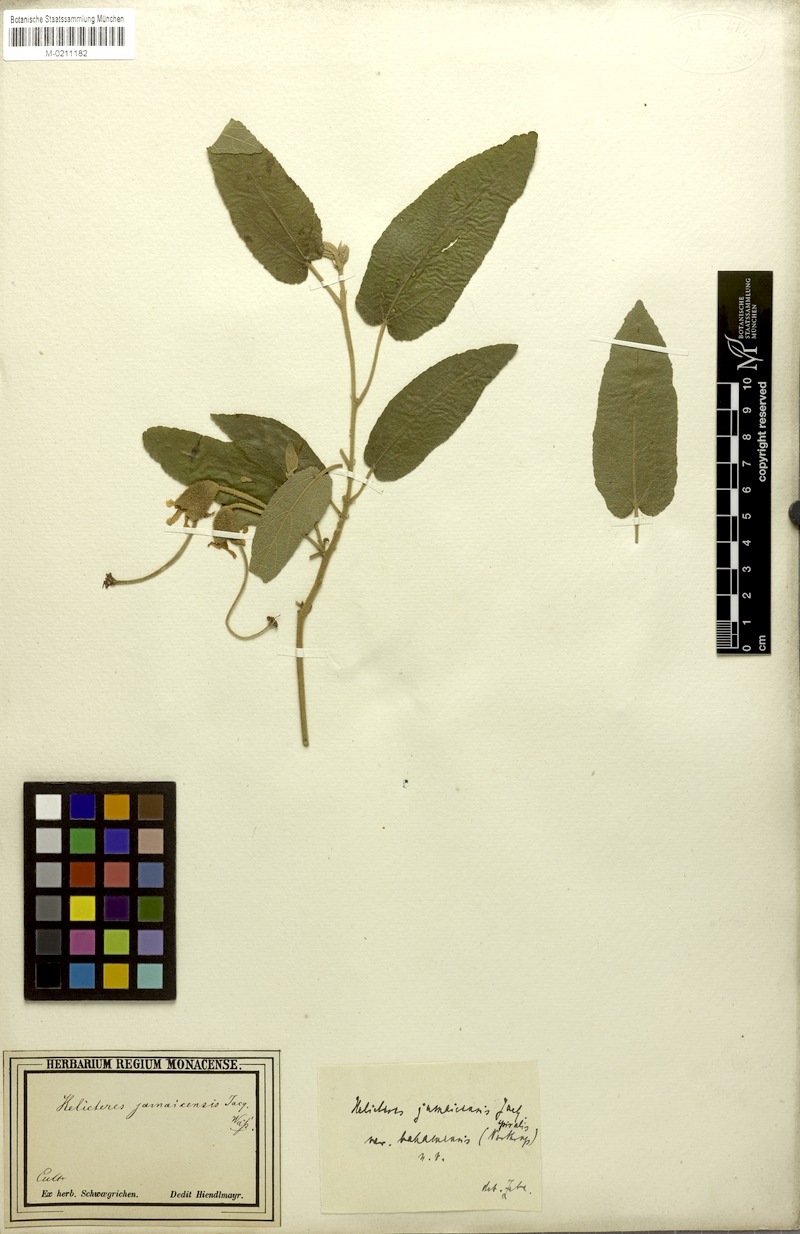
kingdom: Plantae
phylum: Tracheophyta
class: Magnoliopsida
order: Malvales
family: Malvaceae
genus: Helicteres
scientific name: Helicteres jamaicensis
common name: Cowbush
